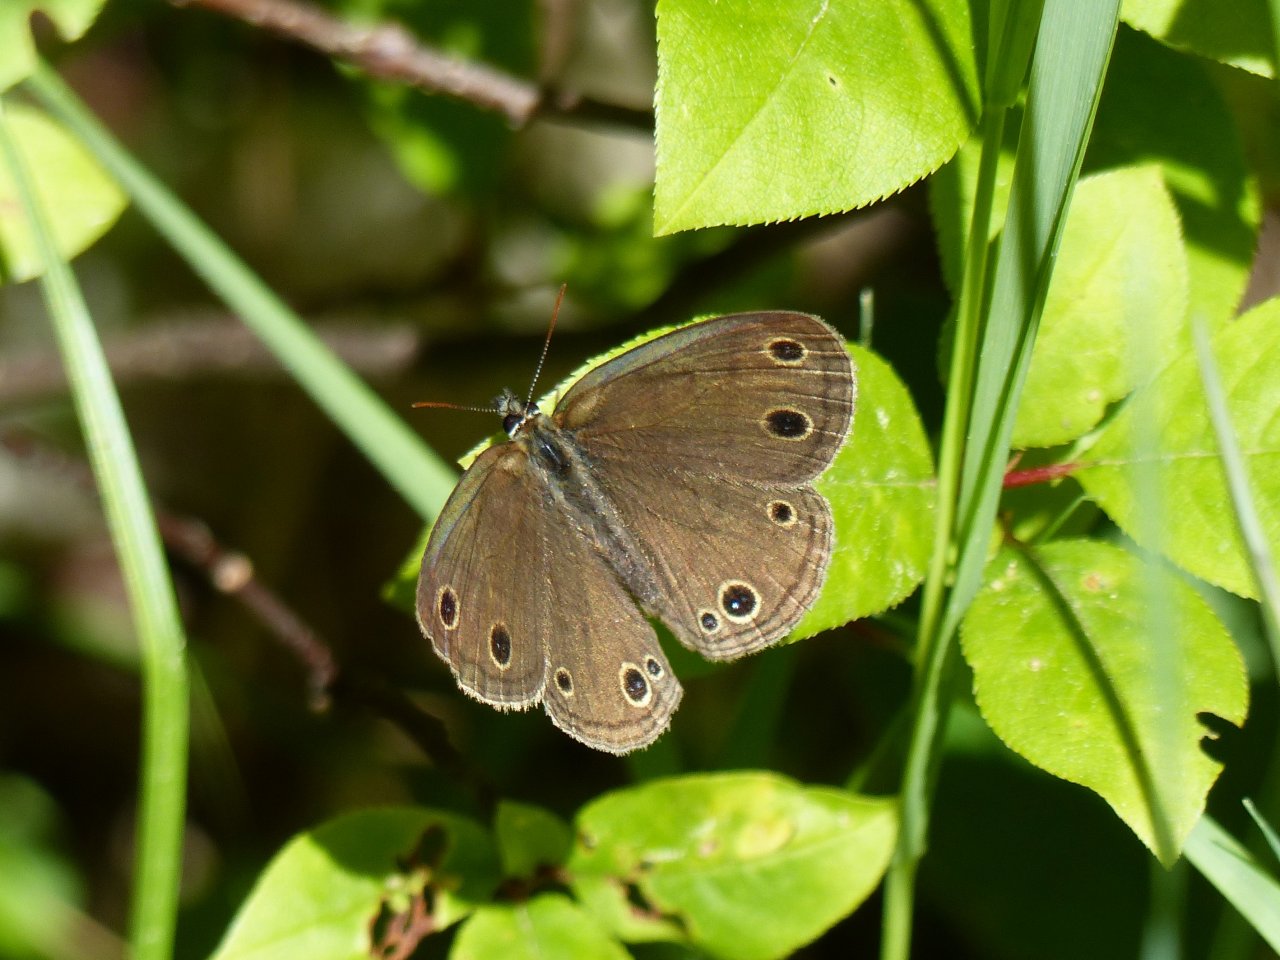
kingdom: Animalia
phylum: Arthropoda
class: Insecta
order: Lepidoptera
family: Nymphalidae
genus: Euptychia
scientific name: Euptychia cymela
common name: Little Wood Satyr
